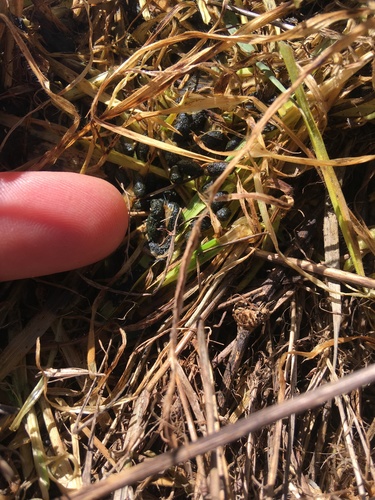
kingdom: Animalia
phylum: Chordata
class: Mammalia
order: Rodentia
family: Cricetidae
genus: Microtus
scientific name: Microtus cabrerae
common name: Cabrera's vole
